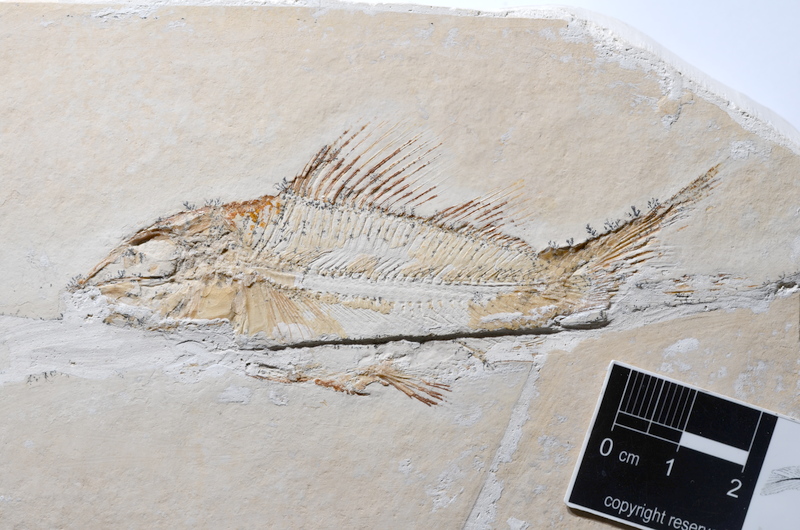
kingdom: Animalia
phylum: Chordata
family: Macrosemiidae
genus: Propterus
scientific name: Propterus elongatus
